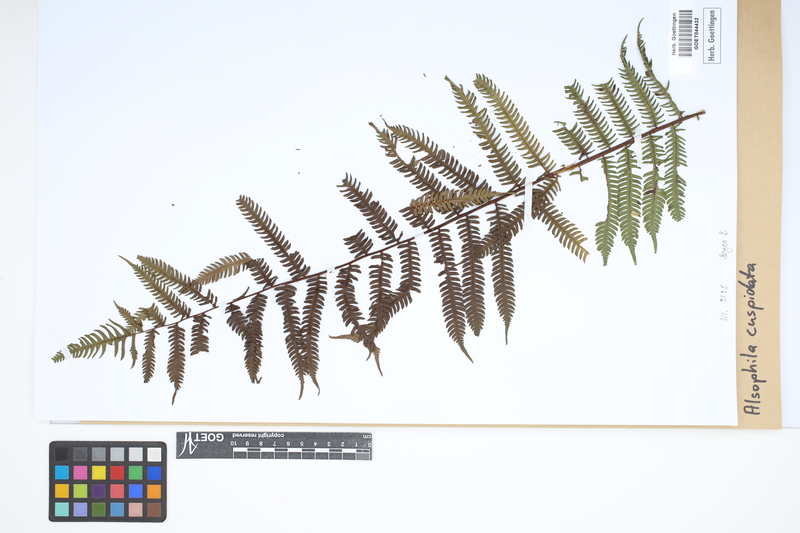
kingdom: Plantae
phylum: Tracheophyta
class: Polypodiopsida
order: Cyatheales
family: Cyatheaceae
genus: Alsophila
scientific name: Alsophila cuspidata
